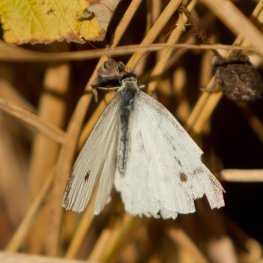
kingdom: Animalia
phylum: Arthropoda
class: Insecta
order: Lepidoptera
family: Pieridae
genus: Pieris
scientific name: Pieris rapae
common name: Cabbage White
